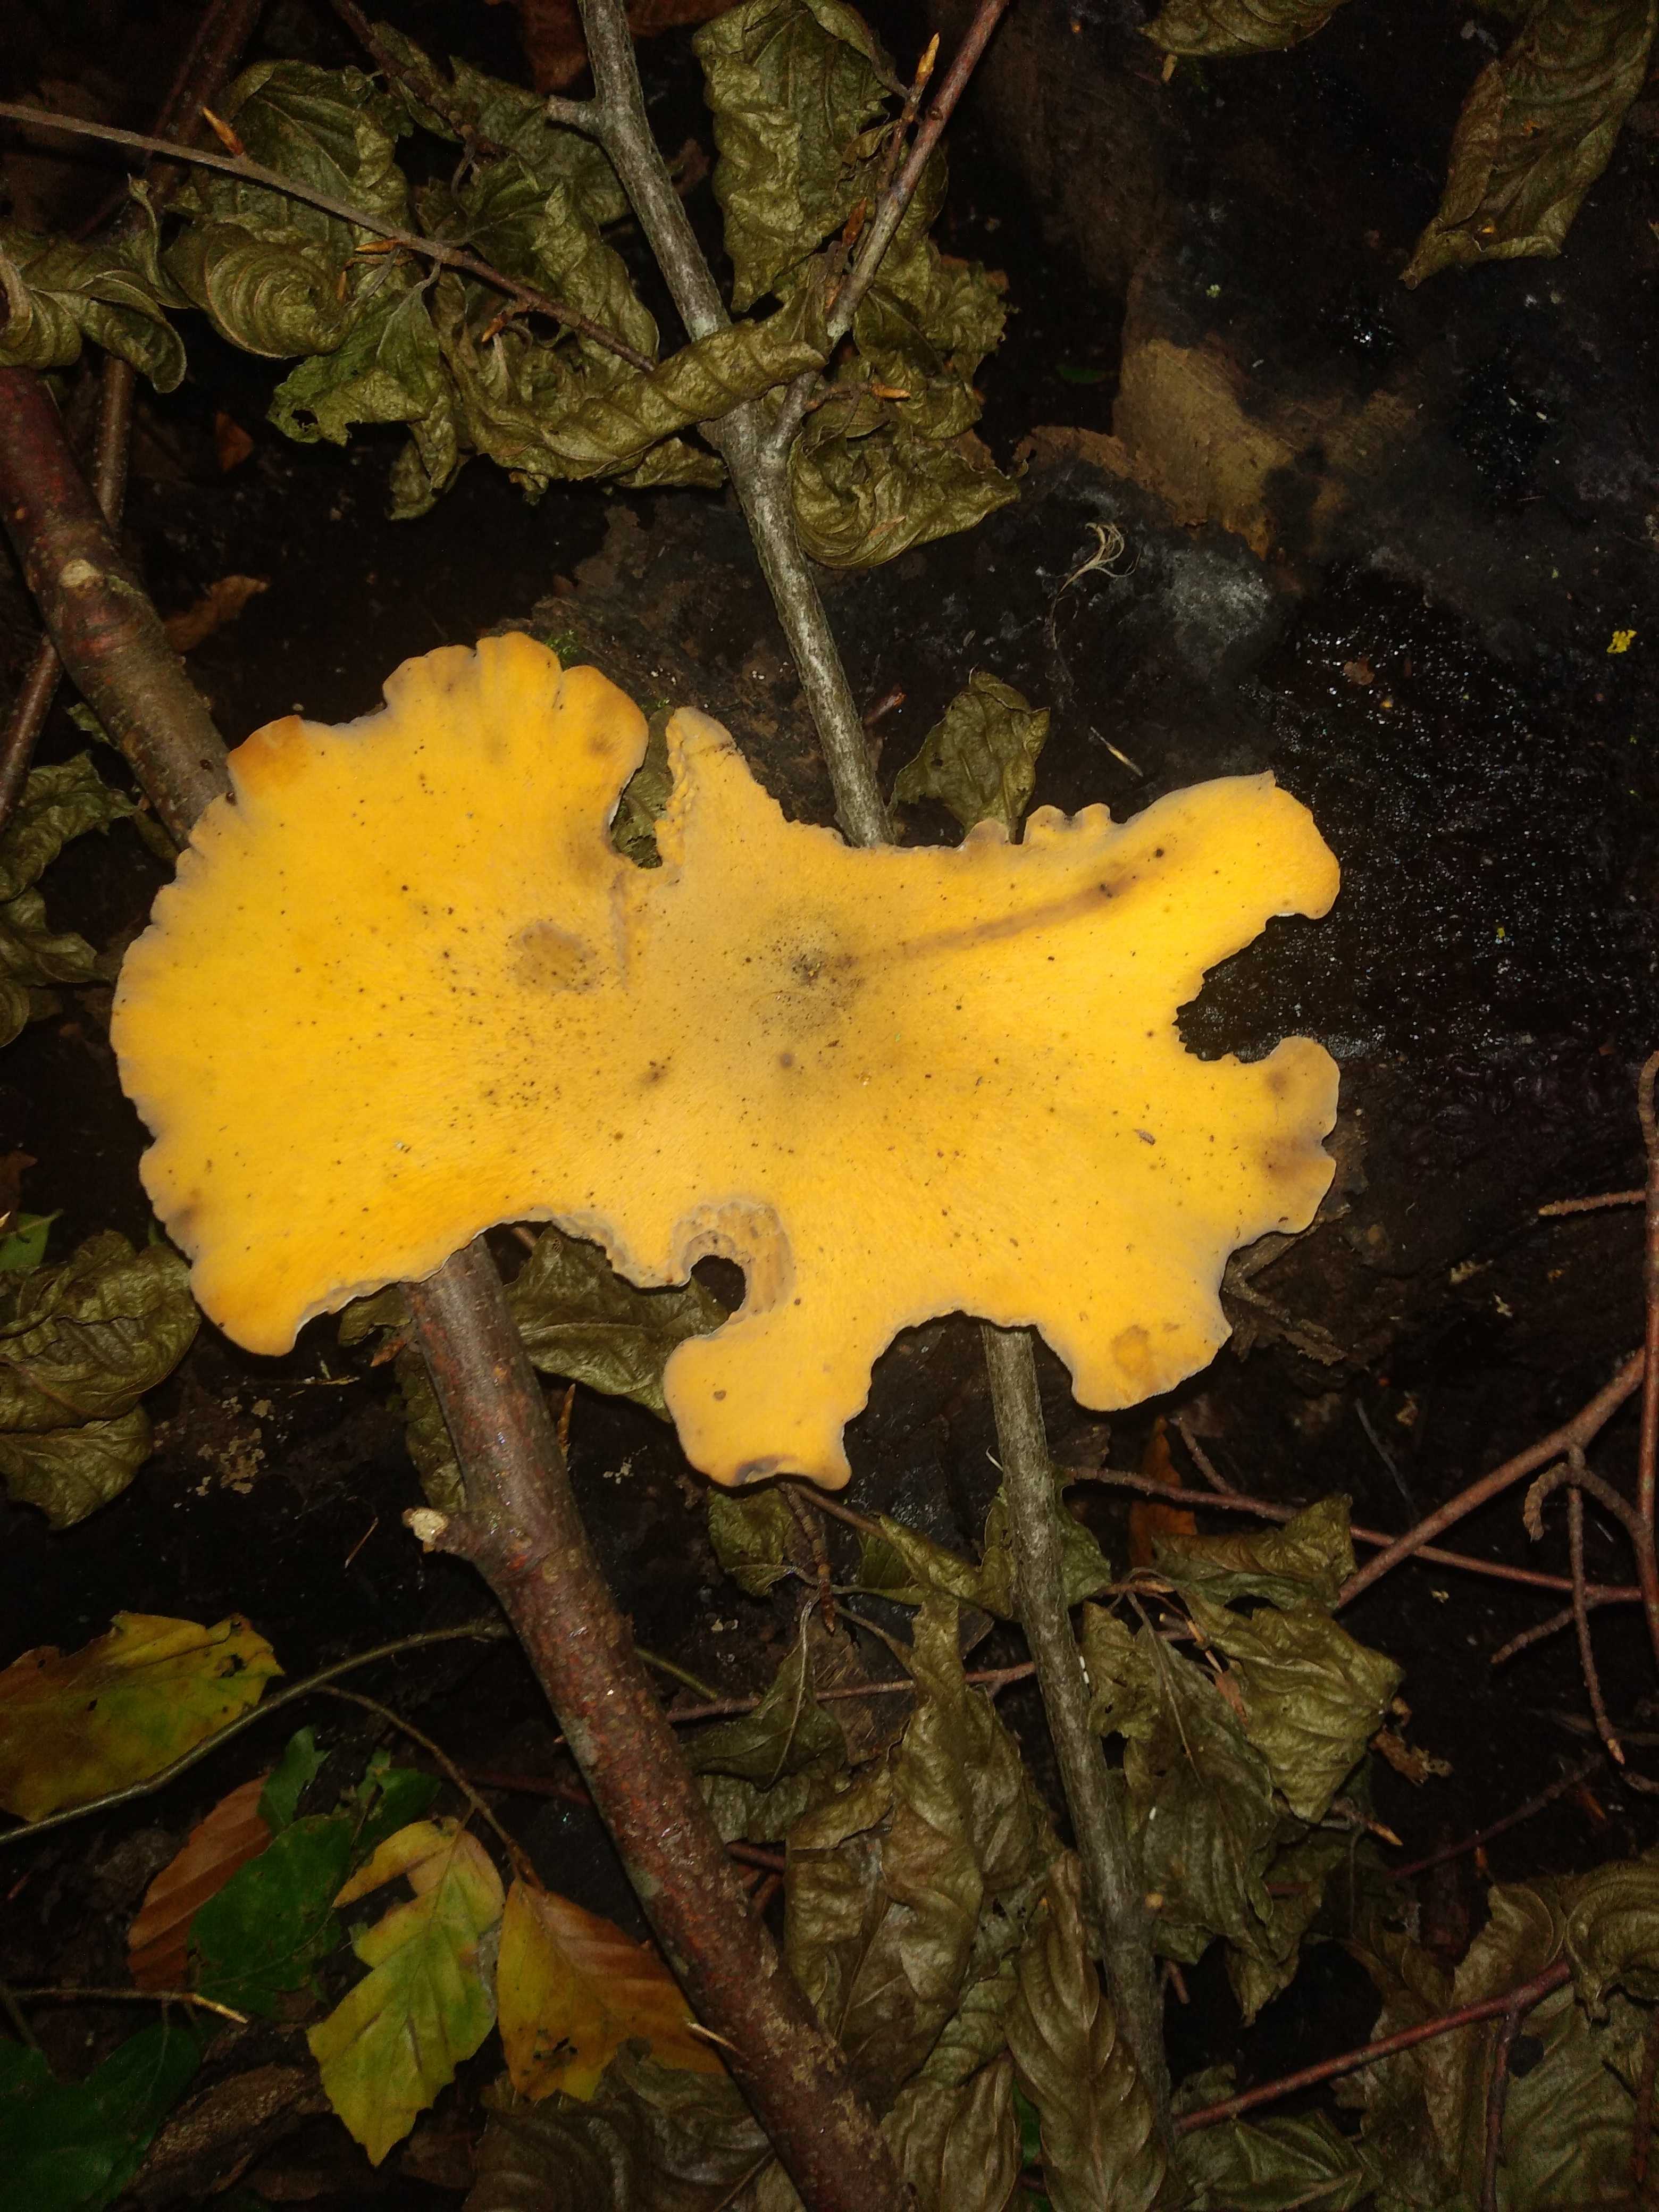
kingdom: Fungi
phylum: Basidiomycota
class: Agaricomycetes
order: Polyporales
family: Polyporaceae
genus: Cerioporus
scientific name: Cerioporus varius
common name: foranderlig stilkporesvamp
